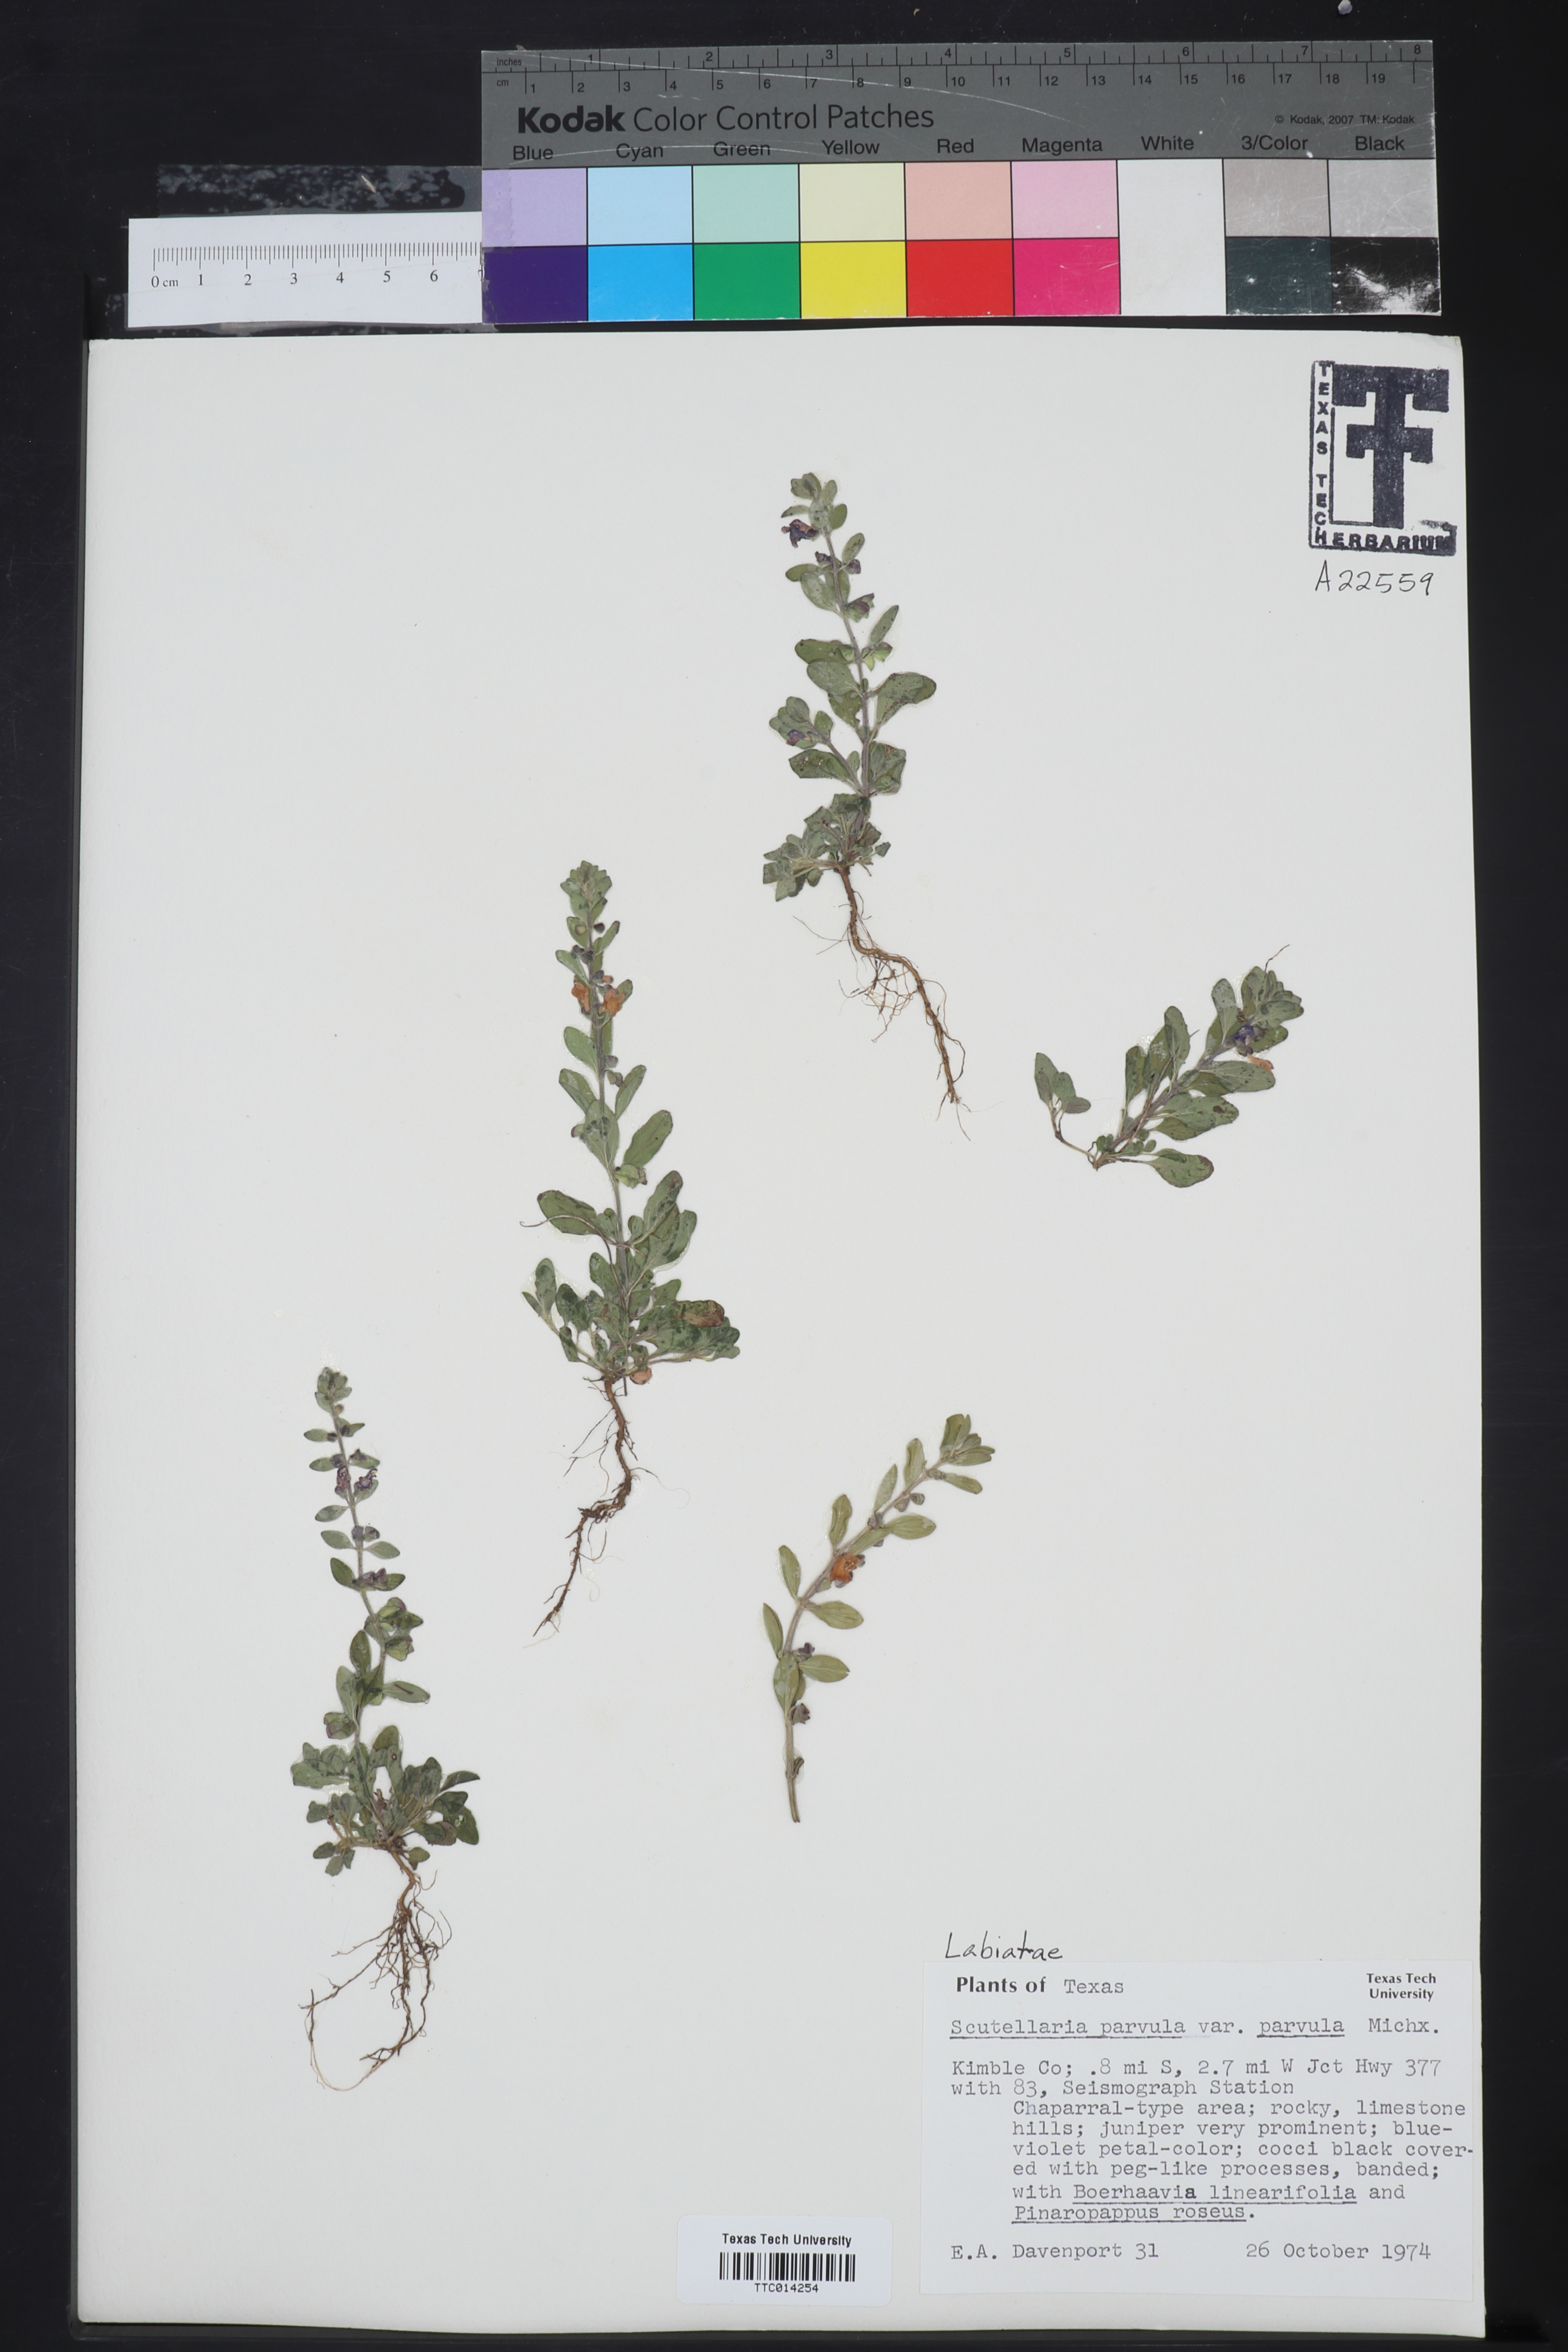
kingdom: Plantae
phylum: Tracheophyta
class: Magnoliopsida
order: Lamiales
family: Lamiaceae
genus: Scutellaria
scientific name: Scutellaria parvula
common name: Little scullcap
